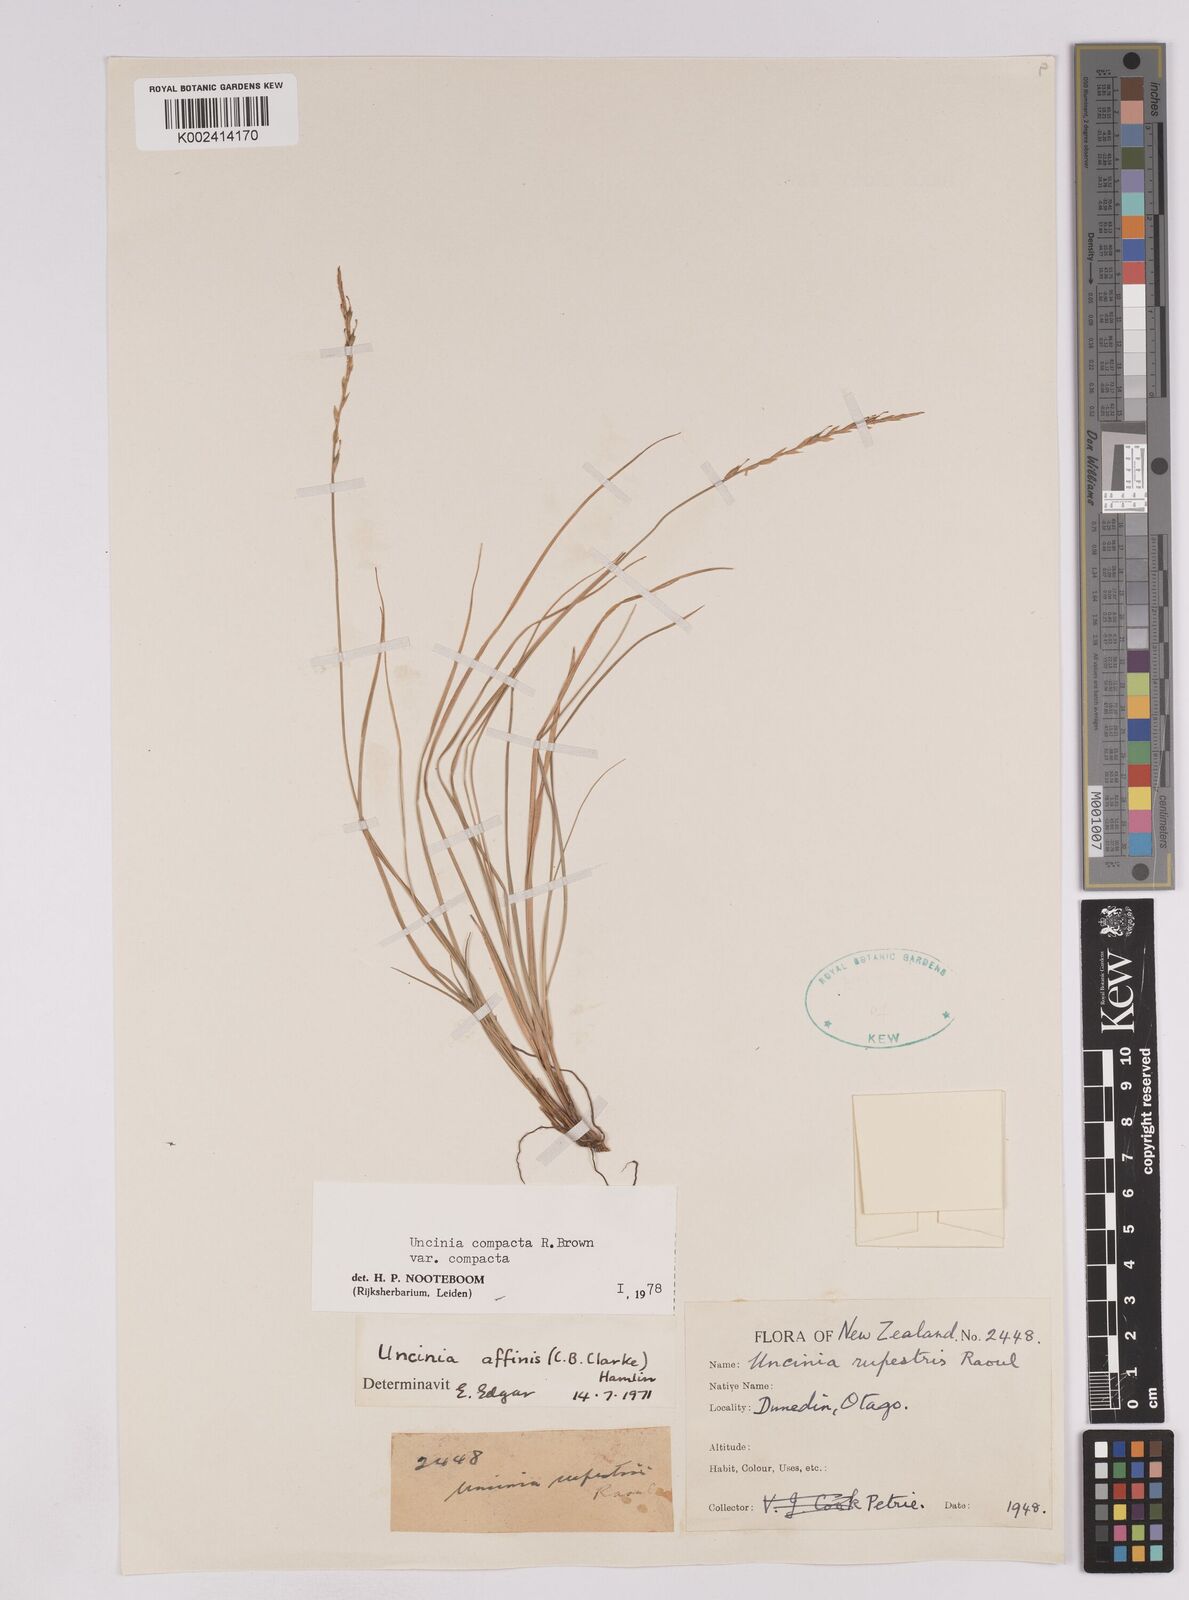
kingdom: Plantae
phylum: Tracheophyta
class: Liliopsida
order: Poales
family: Cyperaceae
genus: Carex
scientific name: Carex austrocompacta
